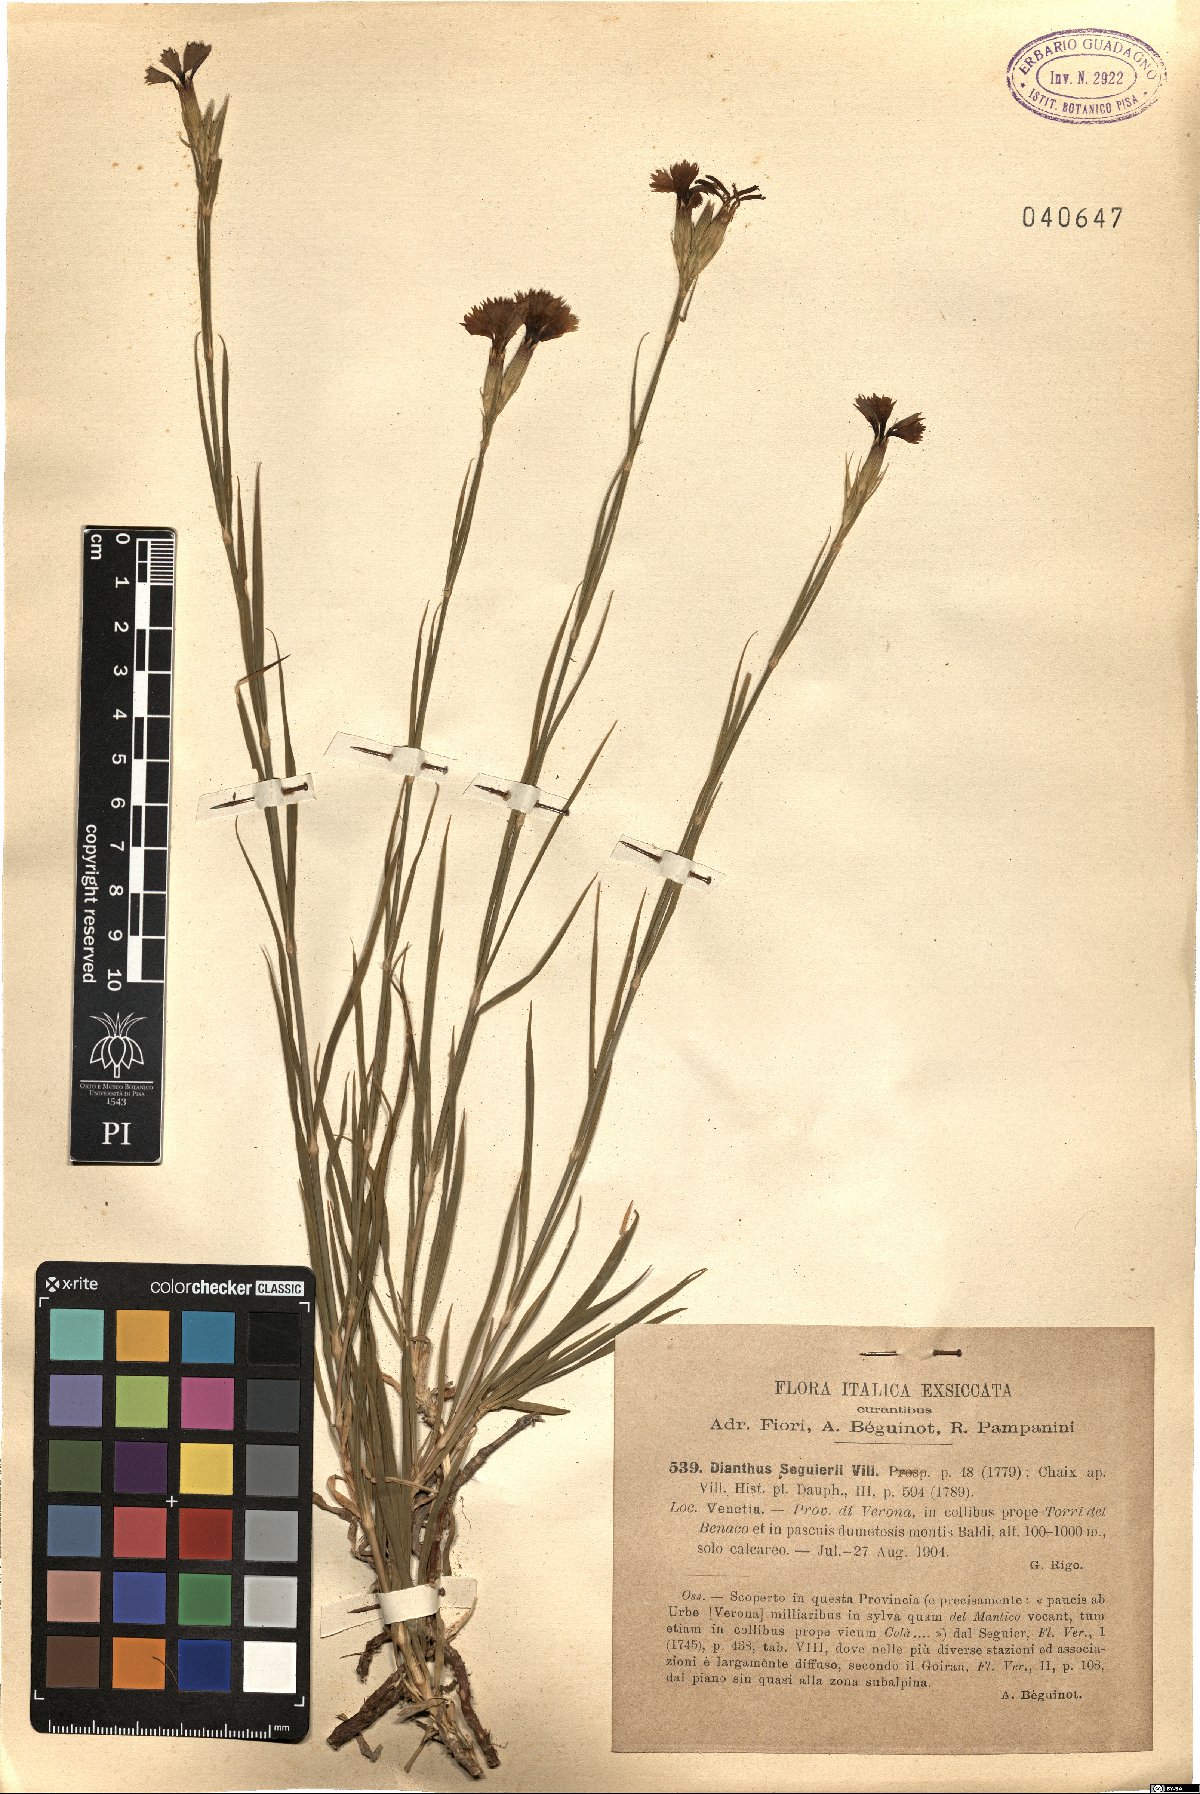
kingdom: Plantae
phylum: Tracheophyta
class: Magnoliopsida
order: Caryophyllales
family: Caryophyllaceae
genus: Dianthus
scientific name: Dianthus seguieri
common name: Ragged pink
